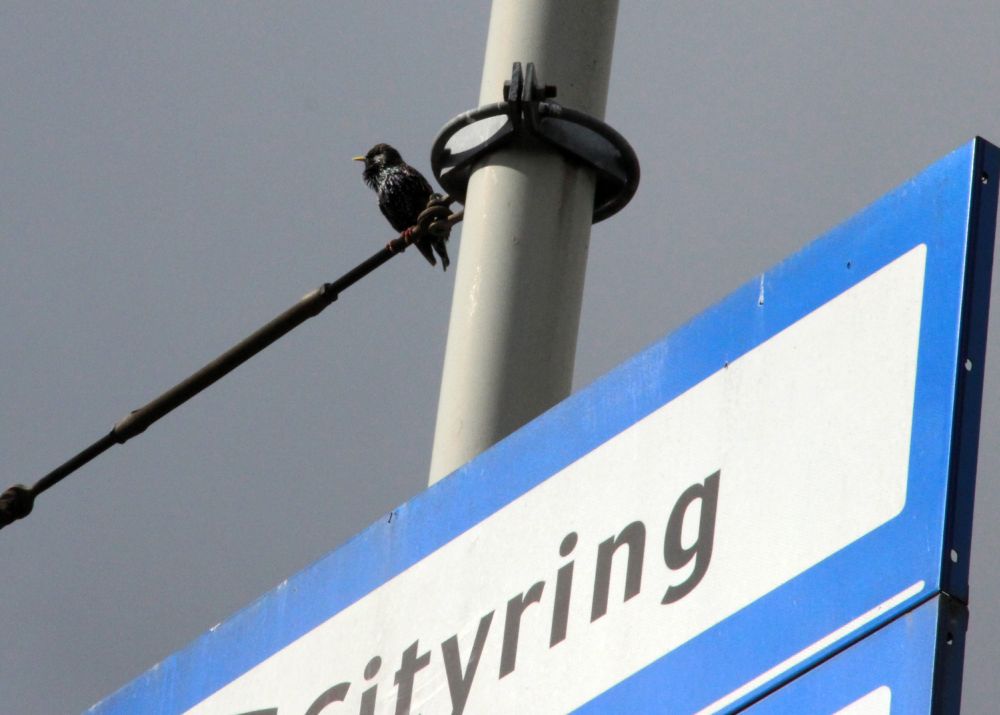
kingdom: Animalia
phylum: Chordata
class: Aves
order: Passeriformes
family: Sturnidae
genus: Sturnus
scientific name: Sturnus vulgaris
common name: Common starling
